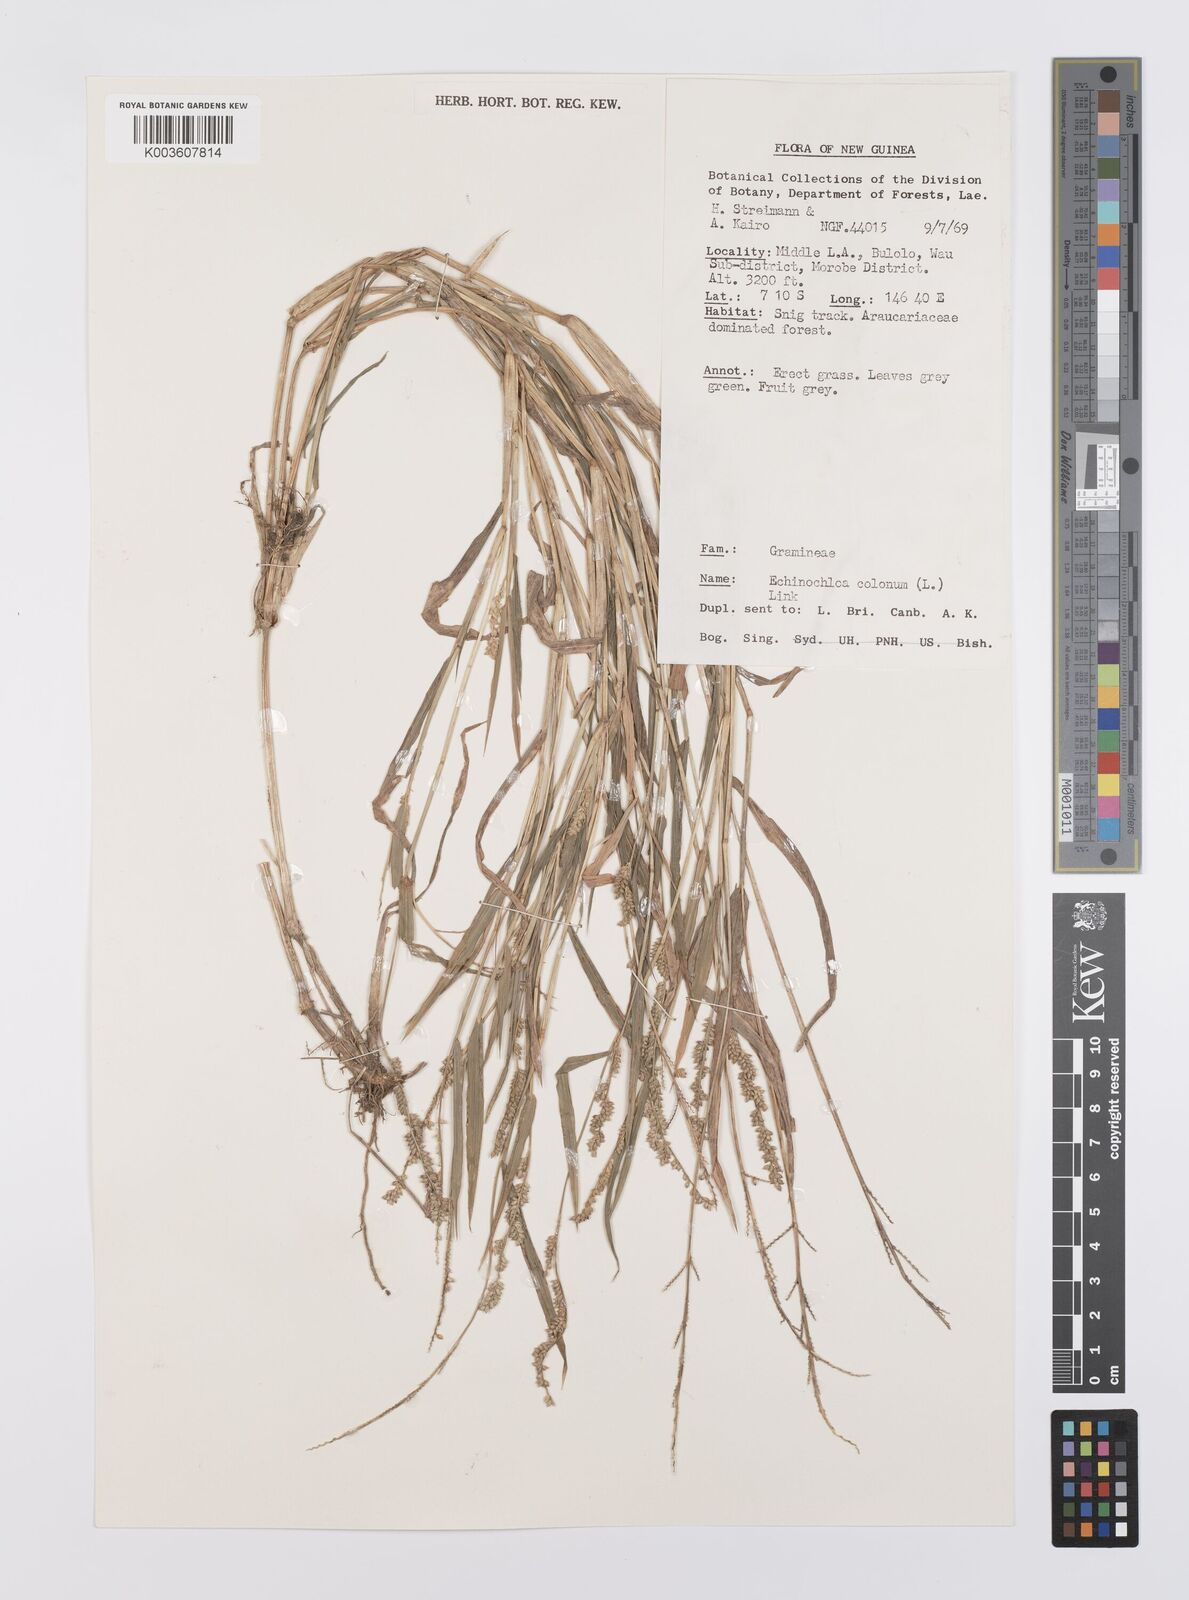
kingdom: Plantae
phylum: Tracheophyta
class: Liliopsida
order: Poales
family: Poaceae
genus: Echinochloa
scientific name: Echinochloa colonum
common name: Jungle rice
